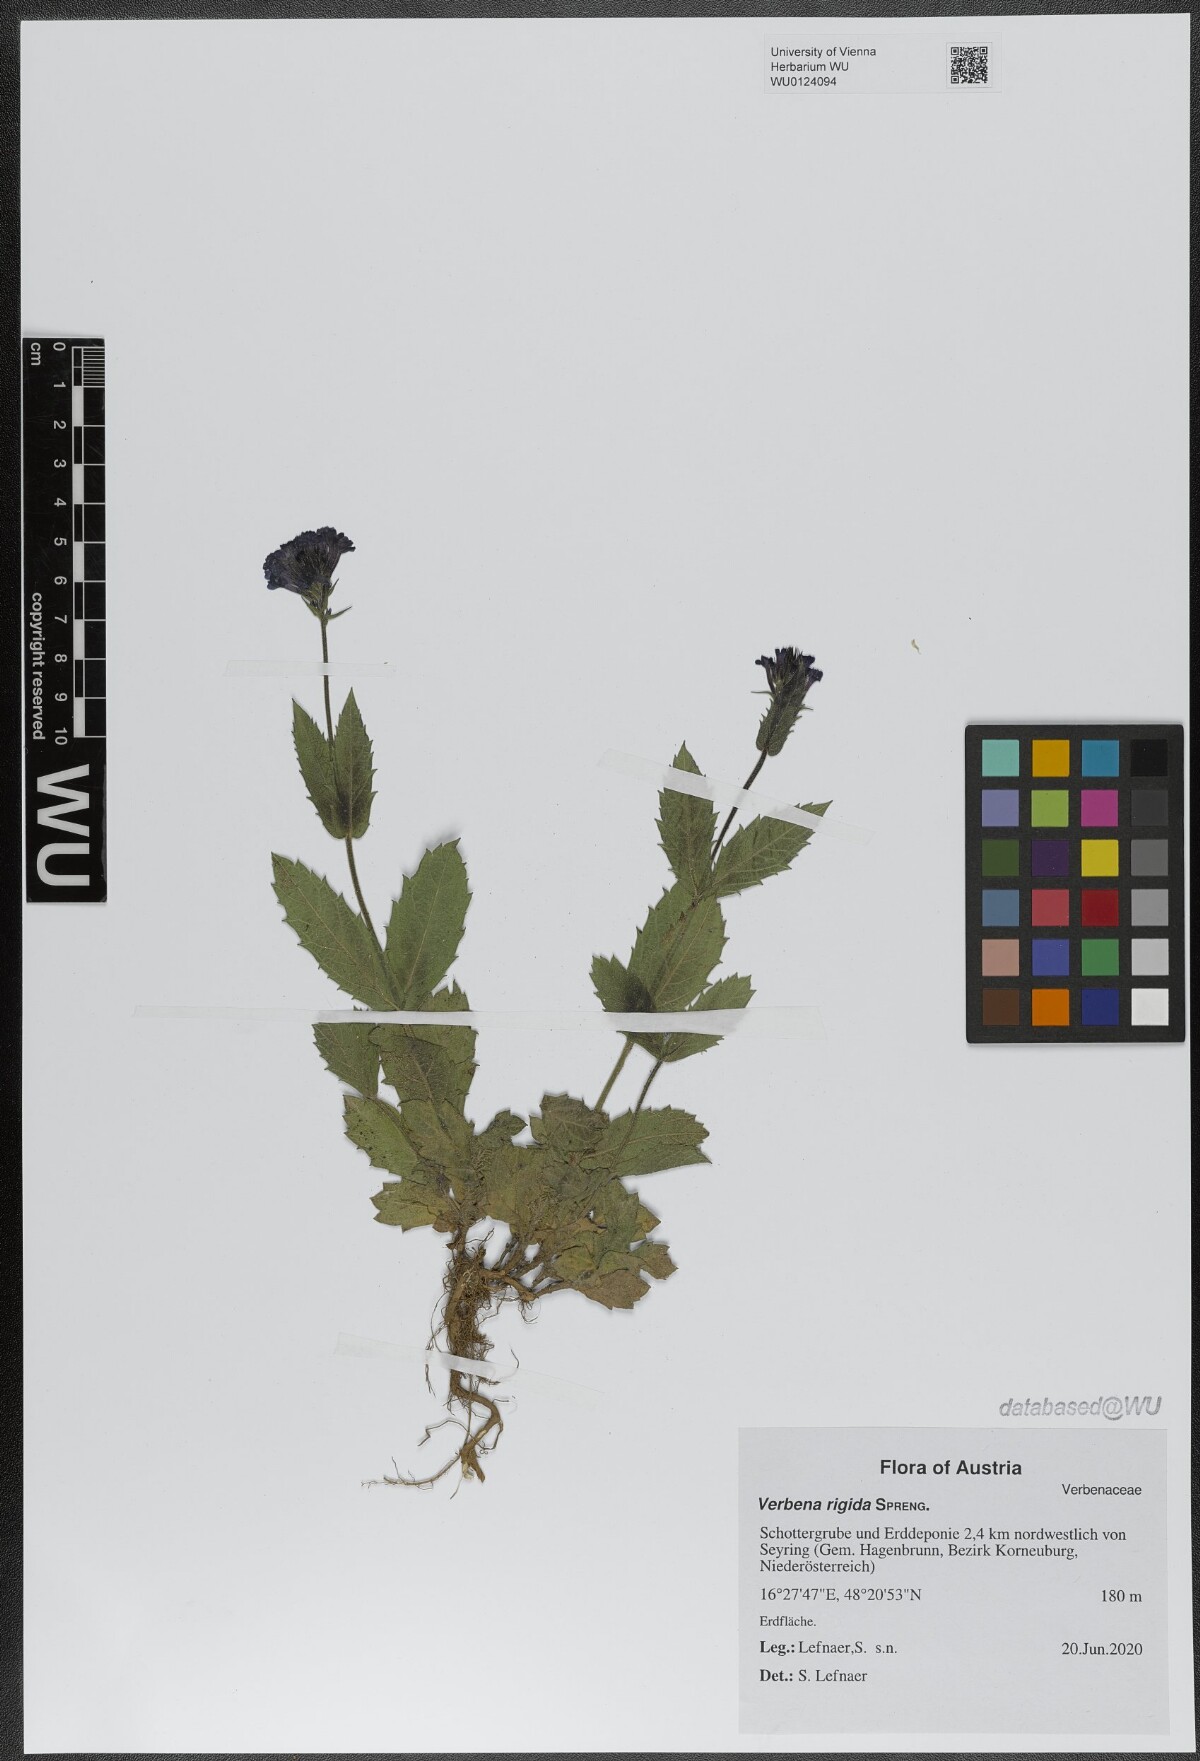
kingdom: Plantae
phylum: Tracheophyta
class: Magnoliopsida
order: Lamiales
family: Verbenaceae
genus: Verbena
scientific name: Verbena rigida
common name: Slender vervain
